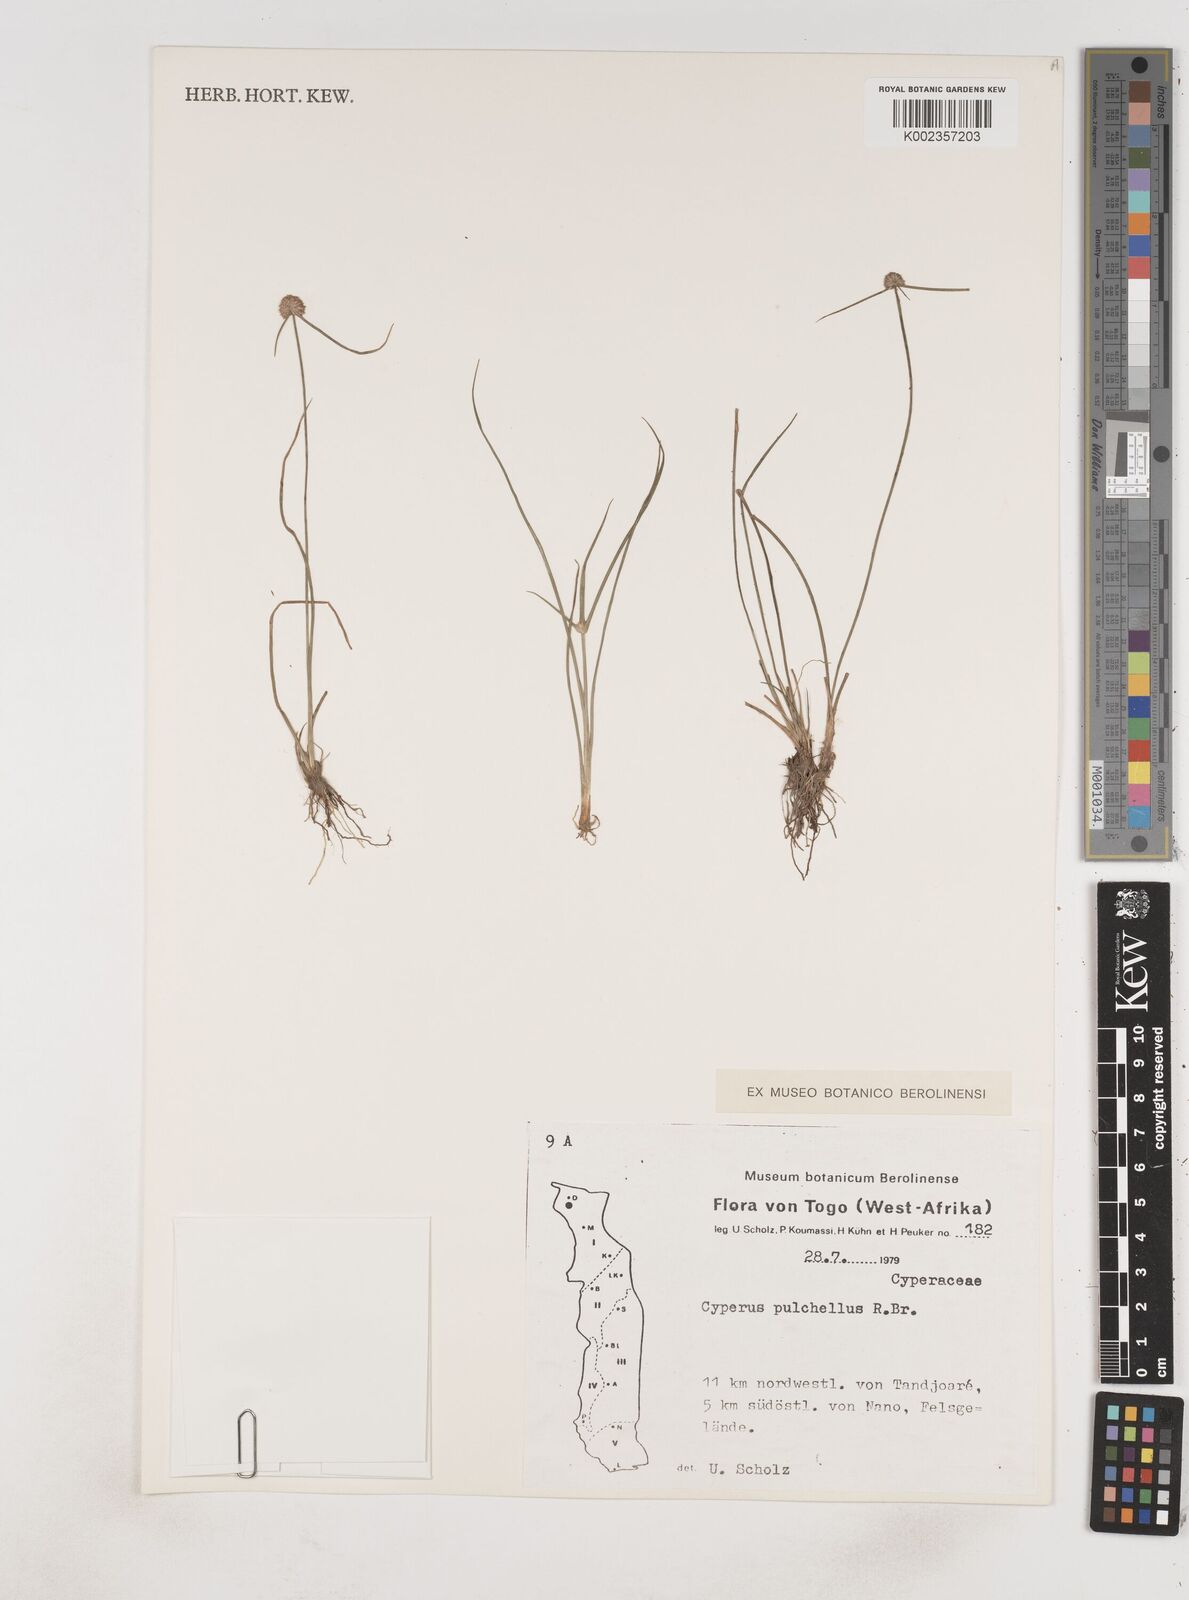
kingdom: Plantae
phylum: Tracheophyta
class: Liliopsida
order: Poales
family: Cyperaceae
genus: Cyperus
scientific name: Cyperus pulchellus
